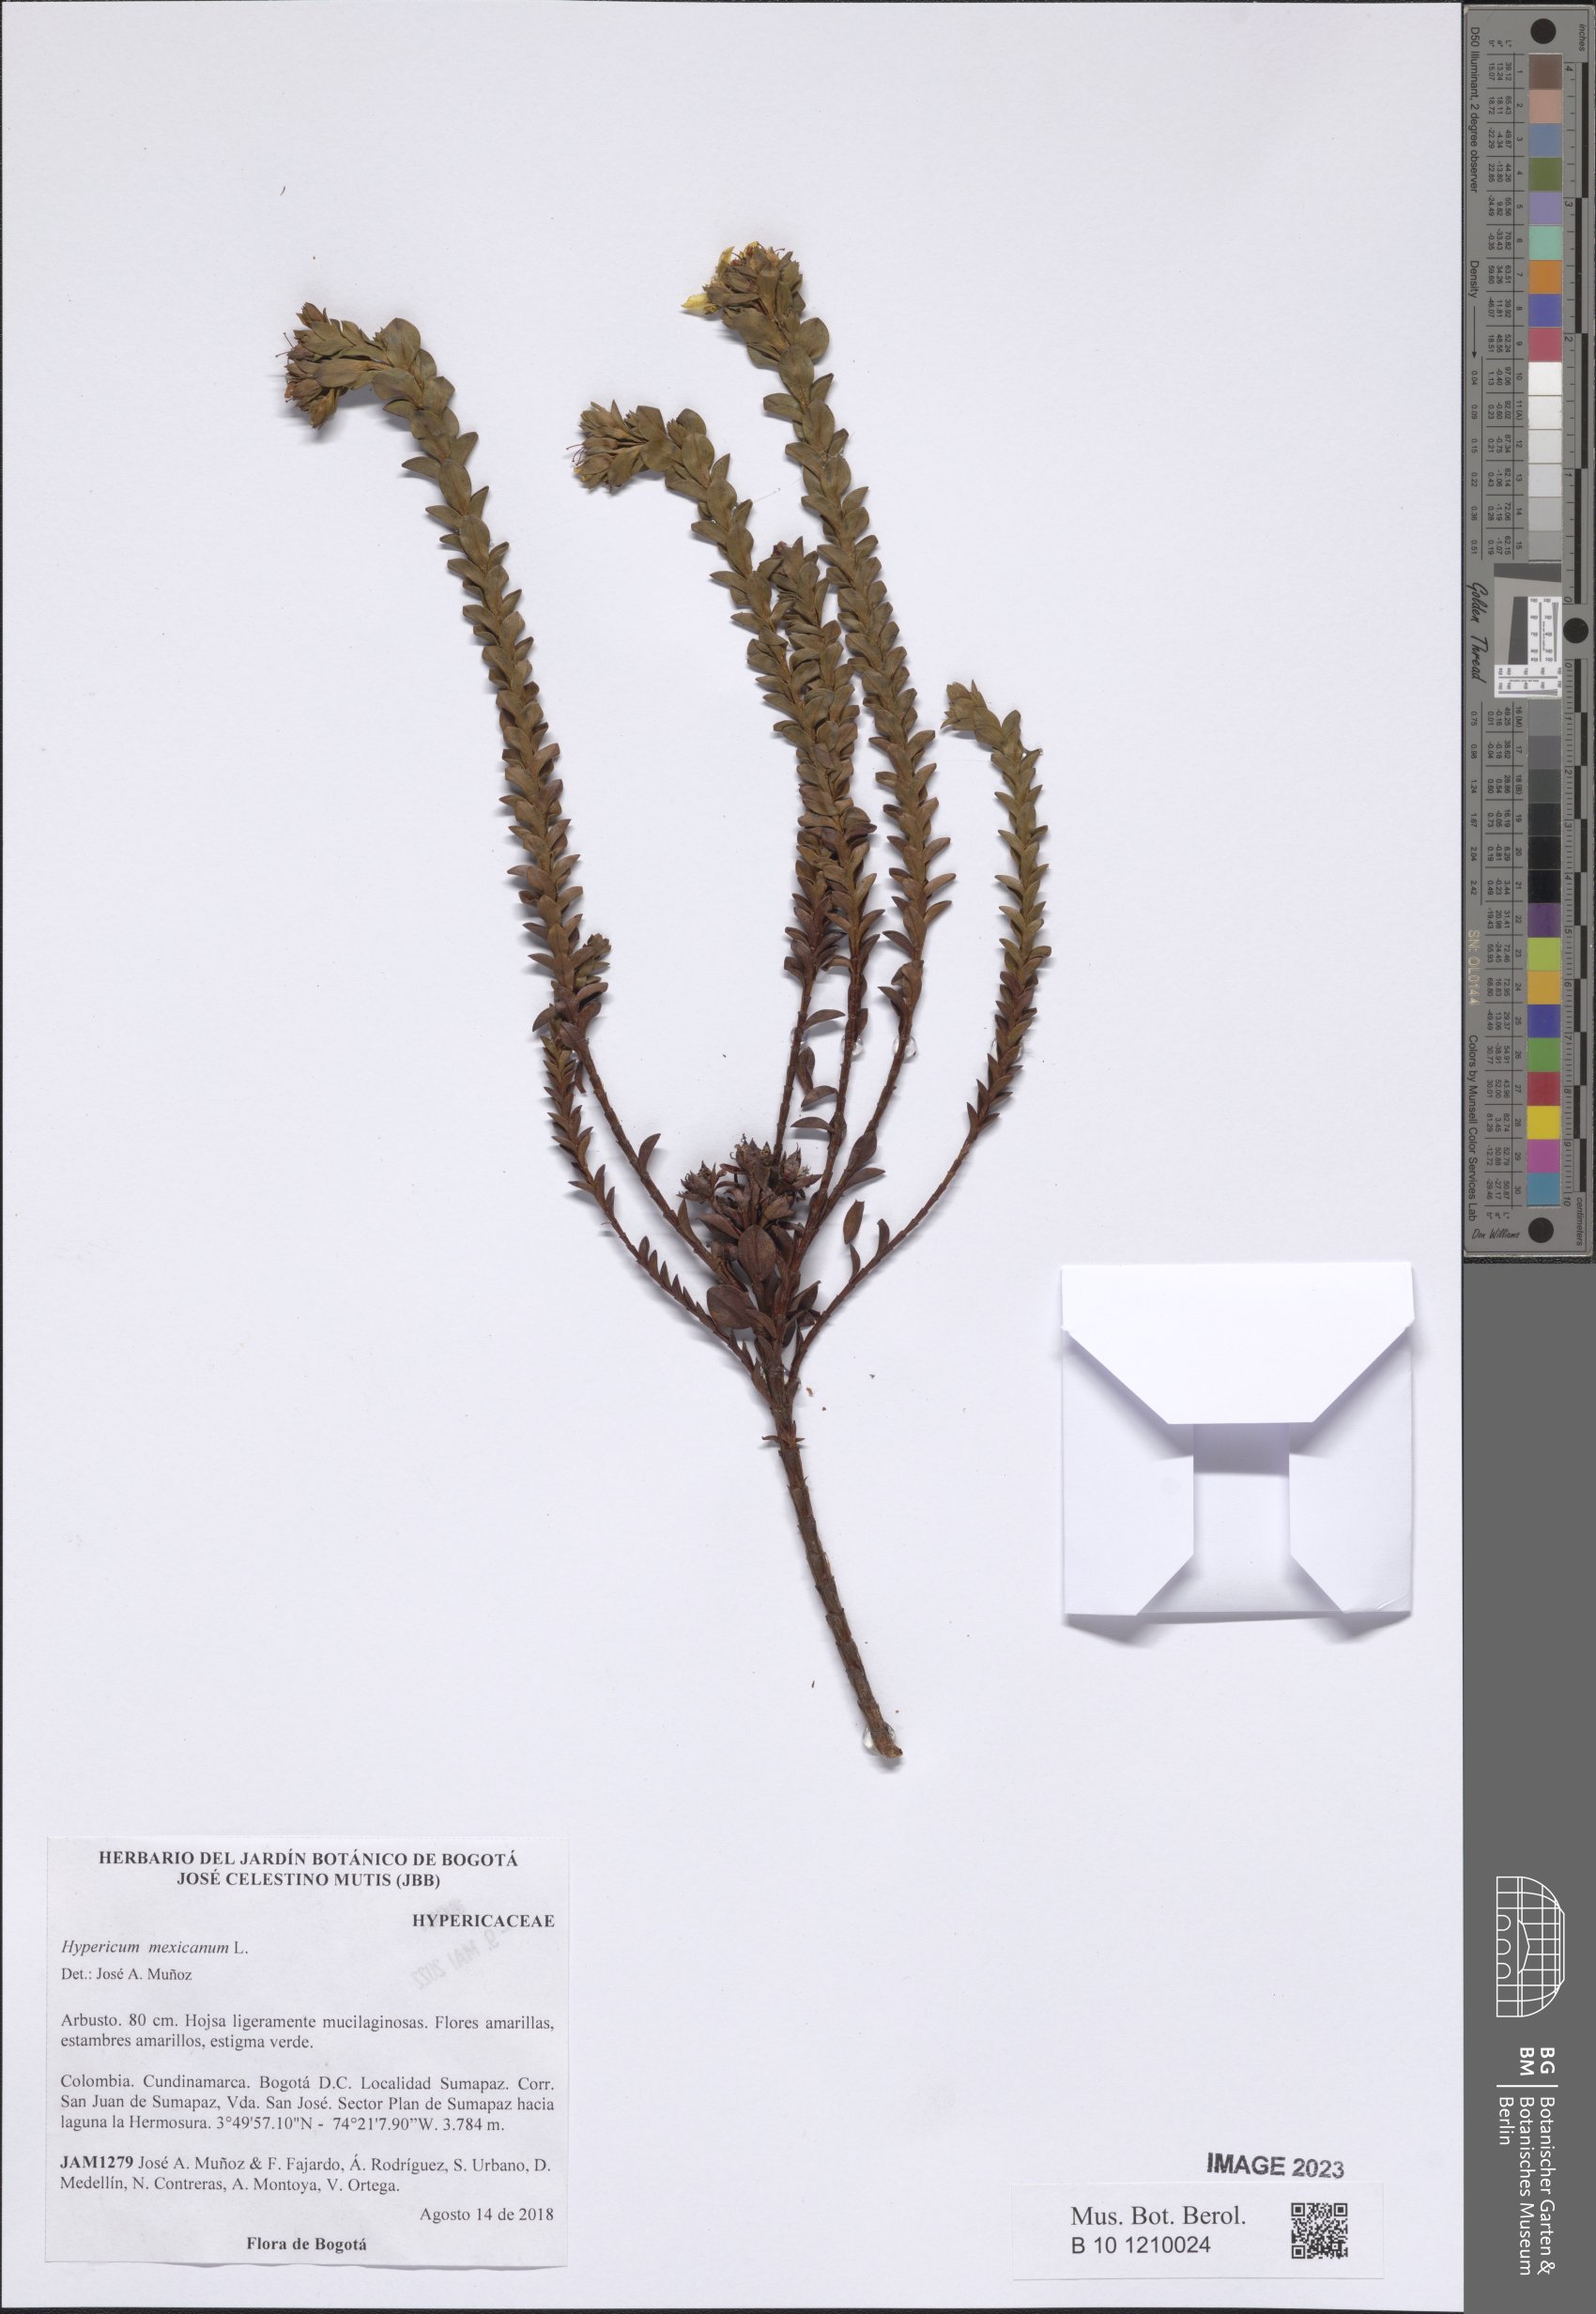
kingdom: Plantae
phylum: Tracheophyta
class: Magnoliopsida
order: Malpighiales
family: Hypericaceae
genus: Hypericum
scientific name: Hypericum mexicanum
